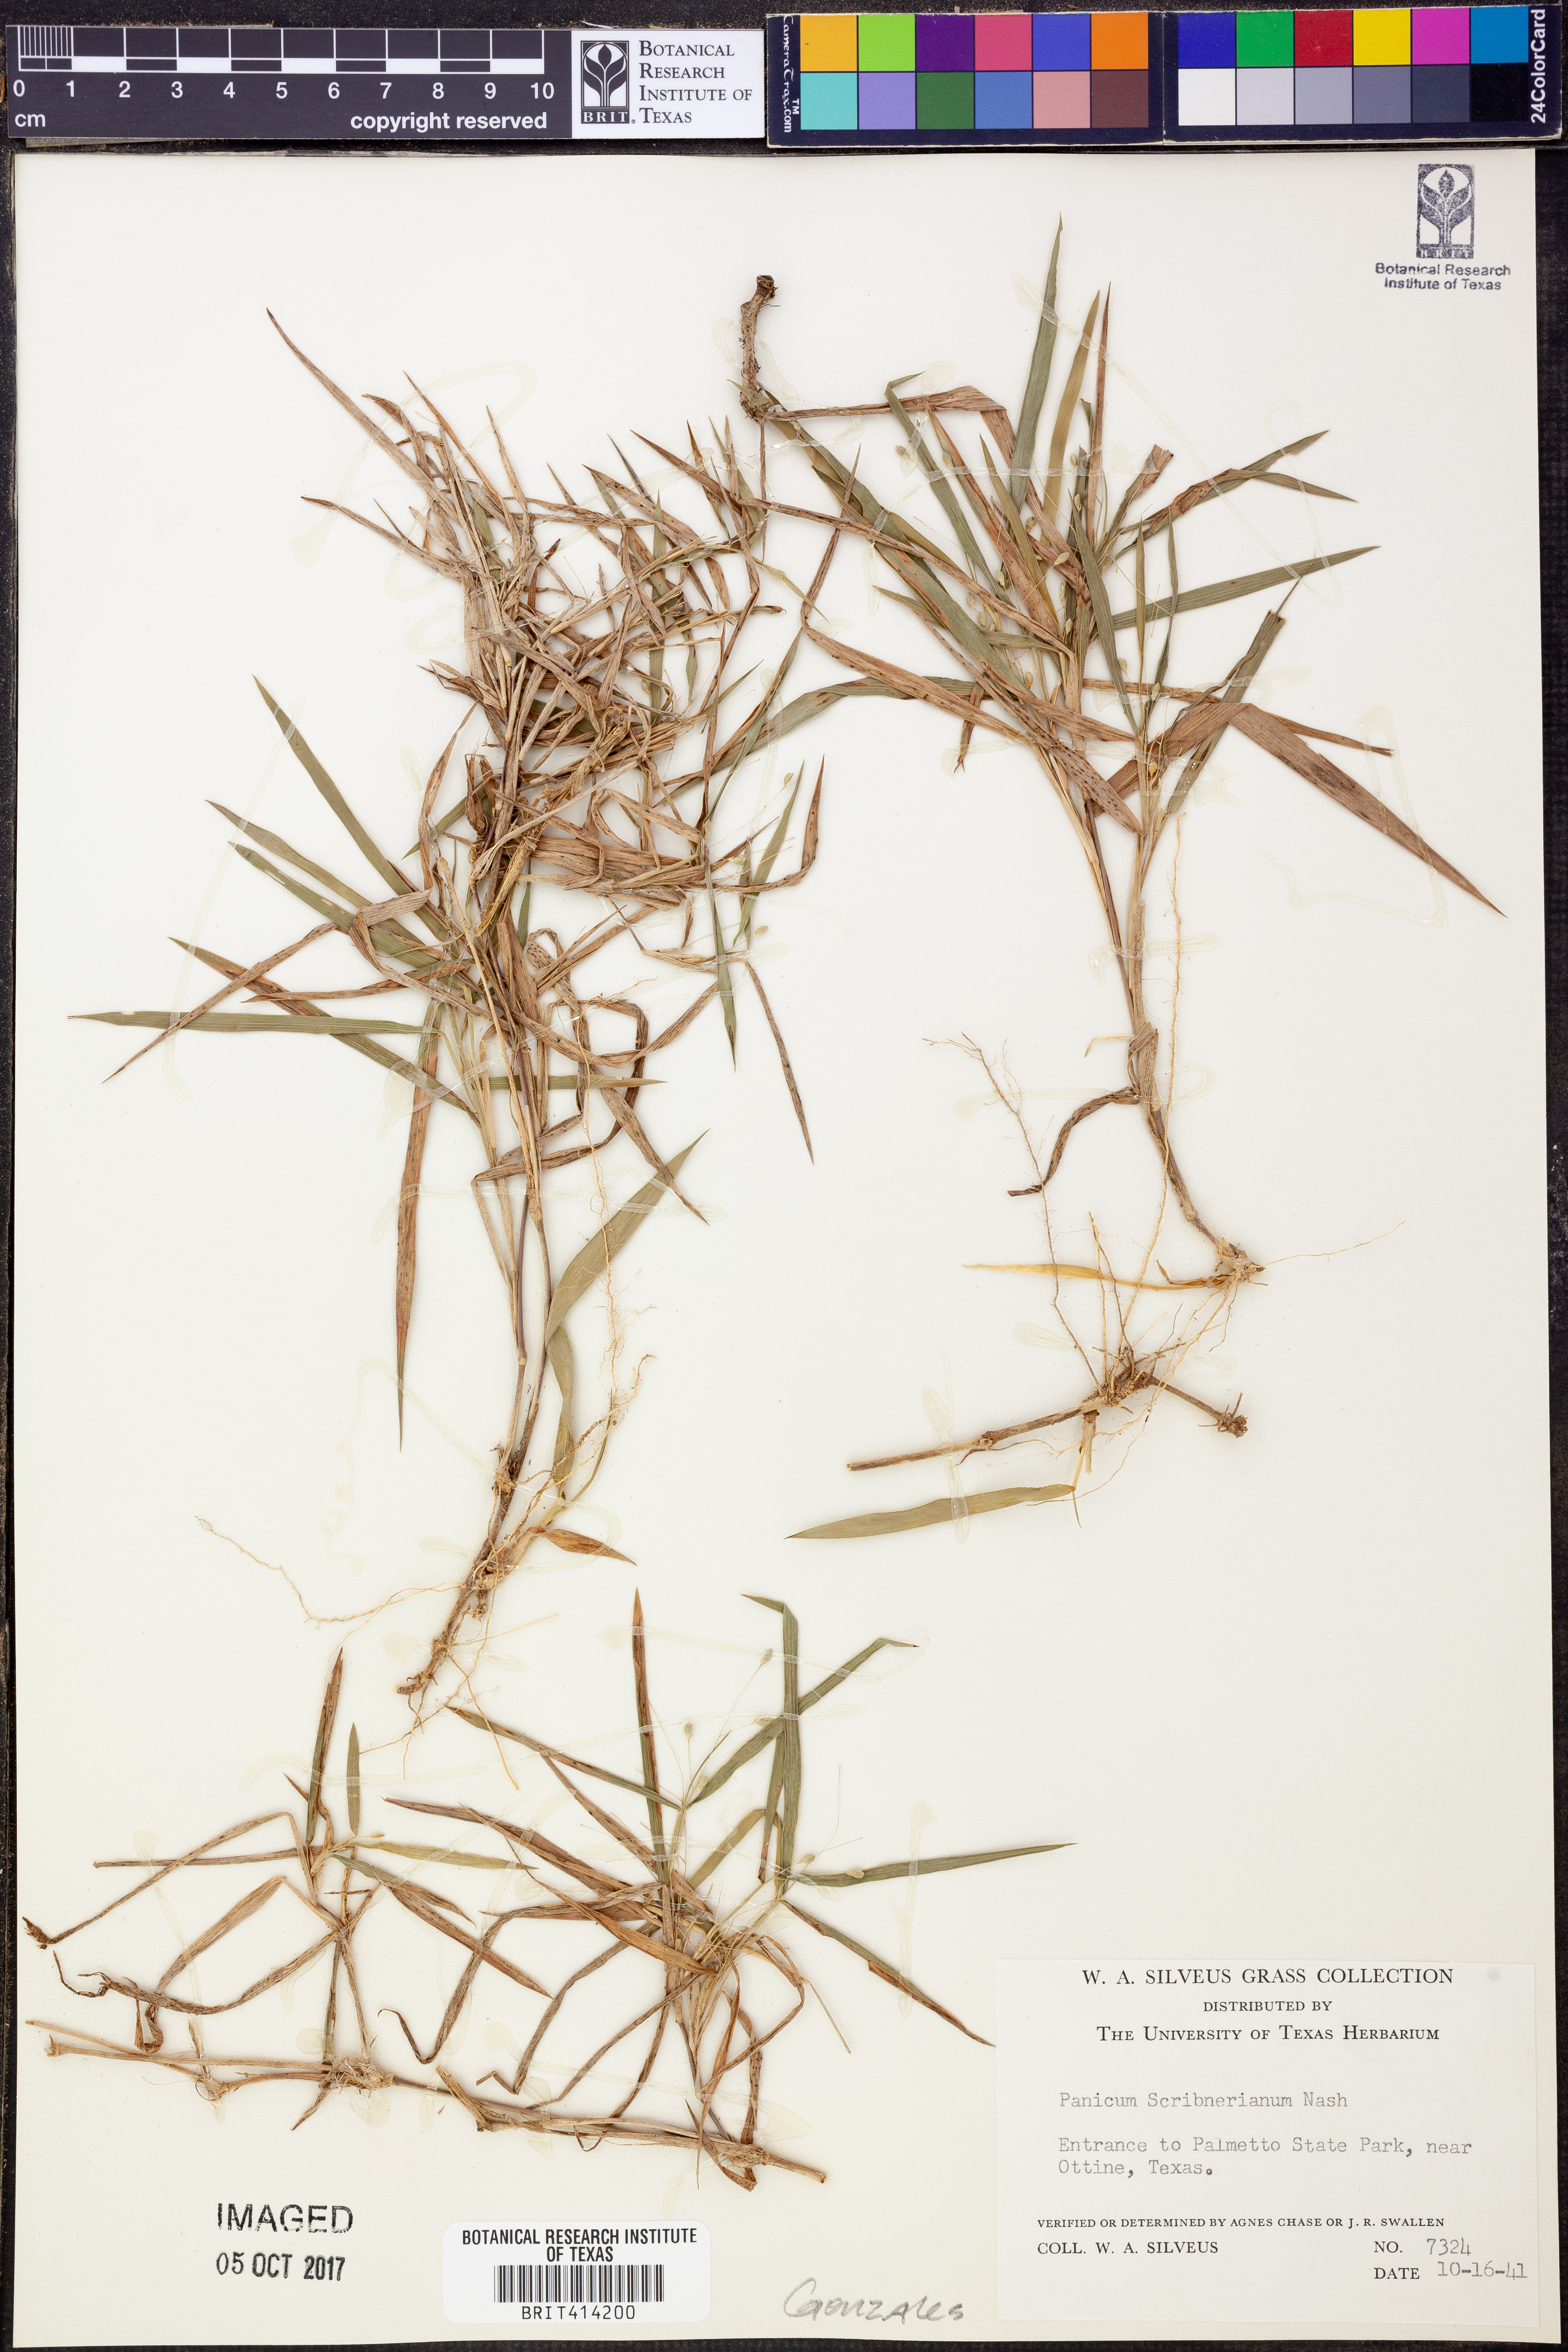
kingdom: Plantae
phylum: Tracheophyta
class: Liliopsida
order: Poales
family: Poaceae
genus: Dichanthelium
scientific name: Dichanthelium scribnerianum
